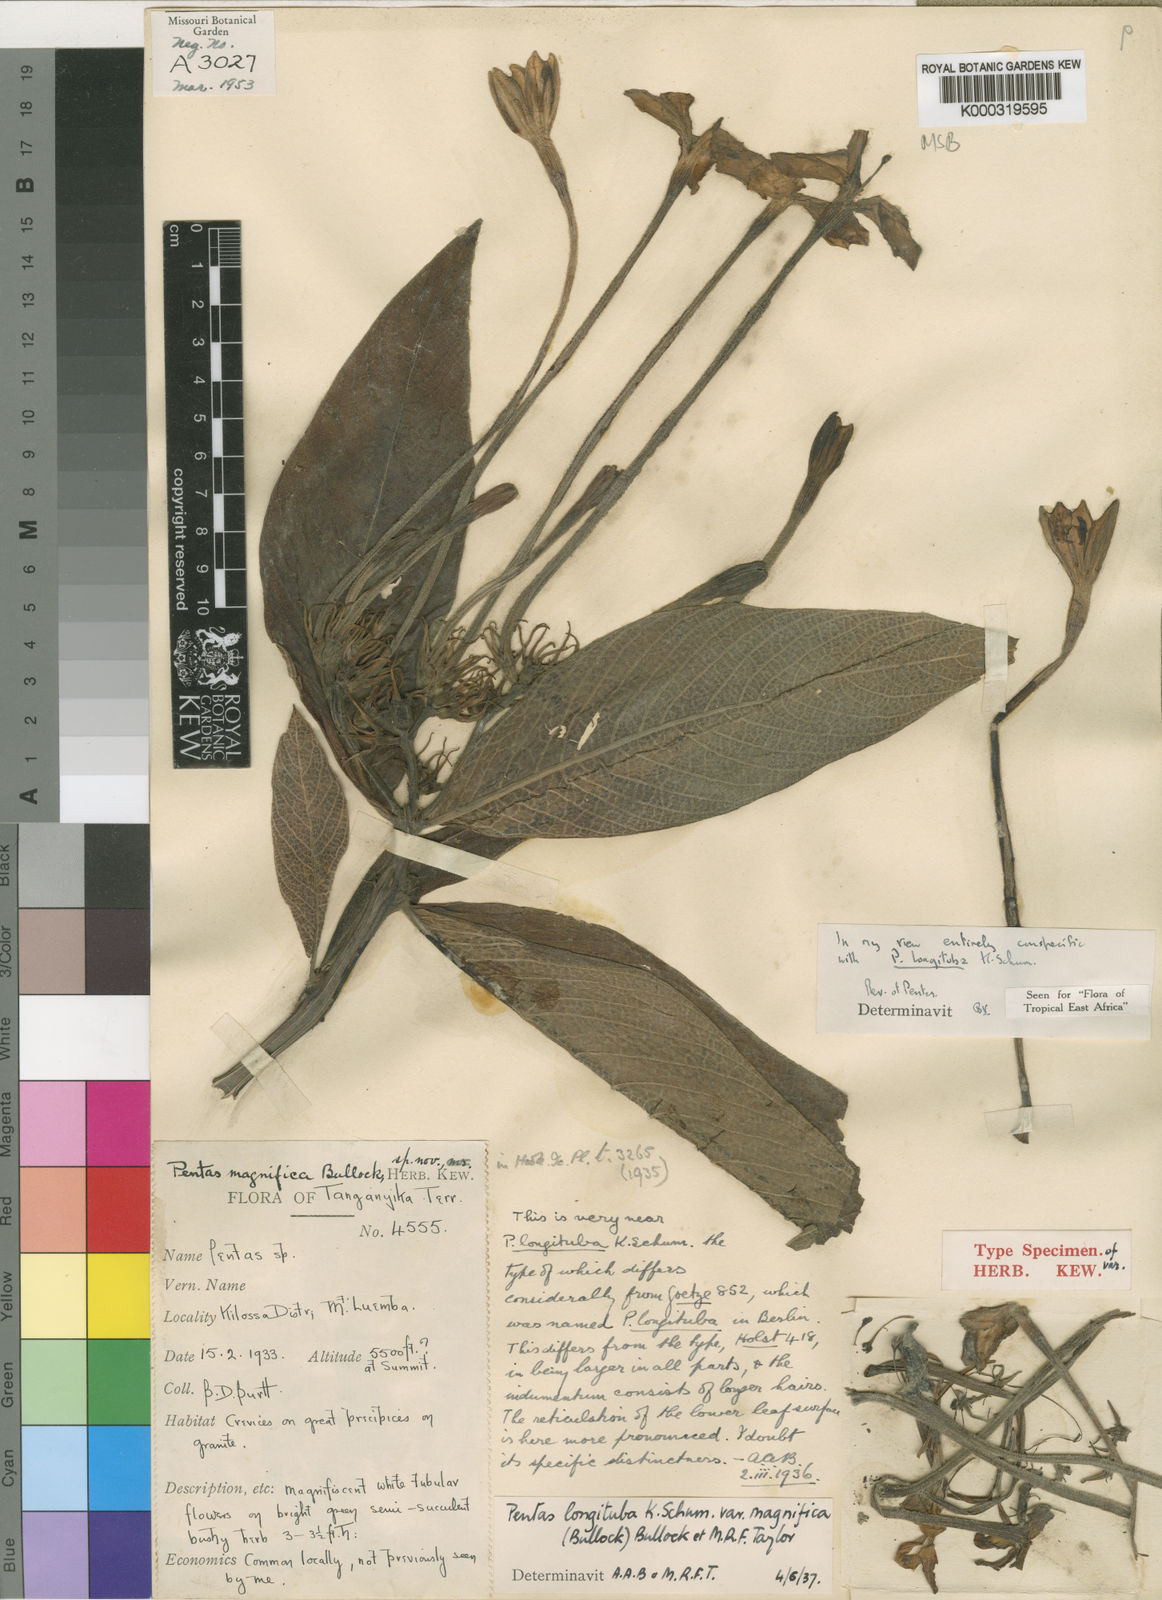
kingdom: Plantae
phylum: Tracheophyta
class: Magnoliopsida
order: Gentianales
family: Rubiaceae
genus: Pentas
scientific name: Pentas
